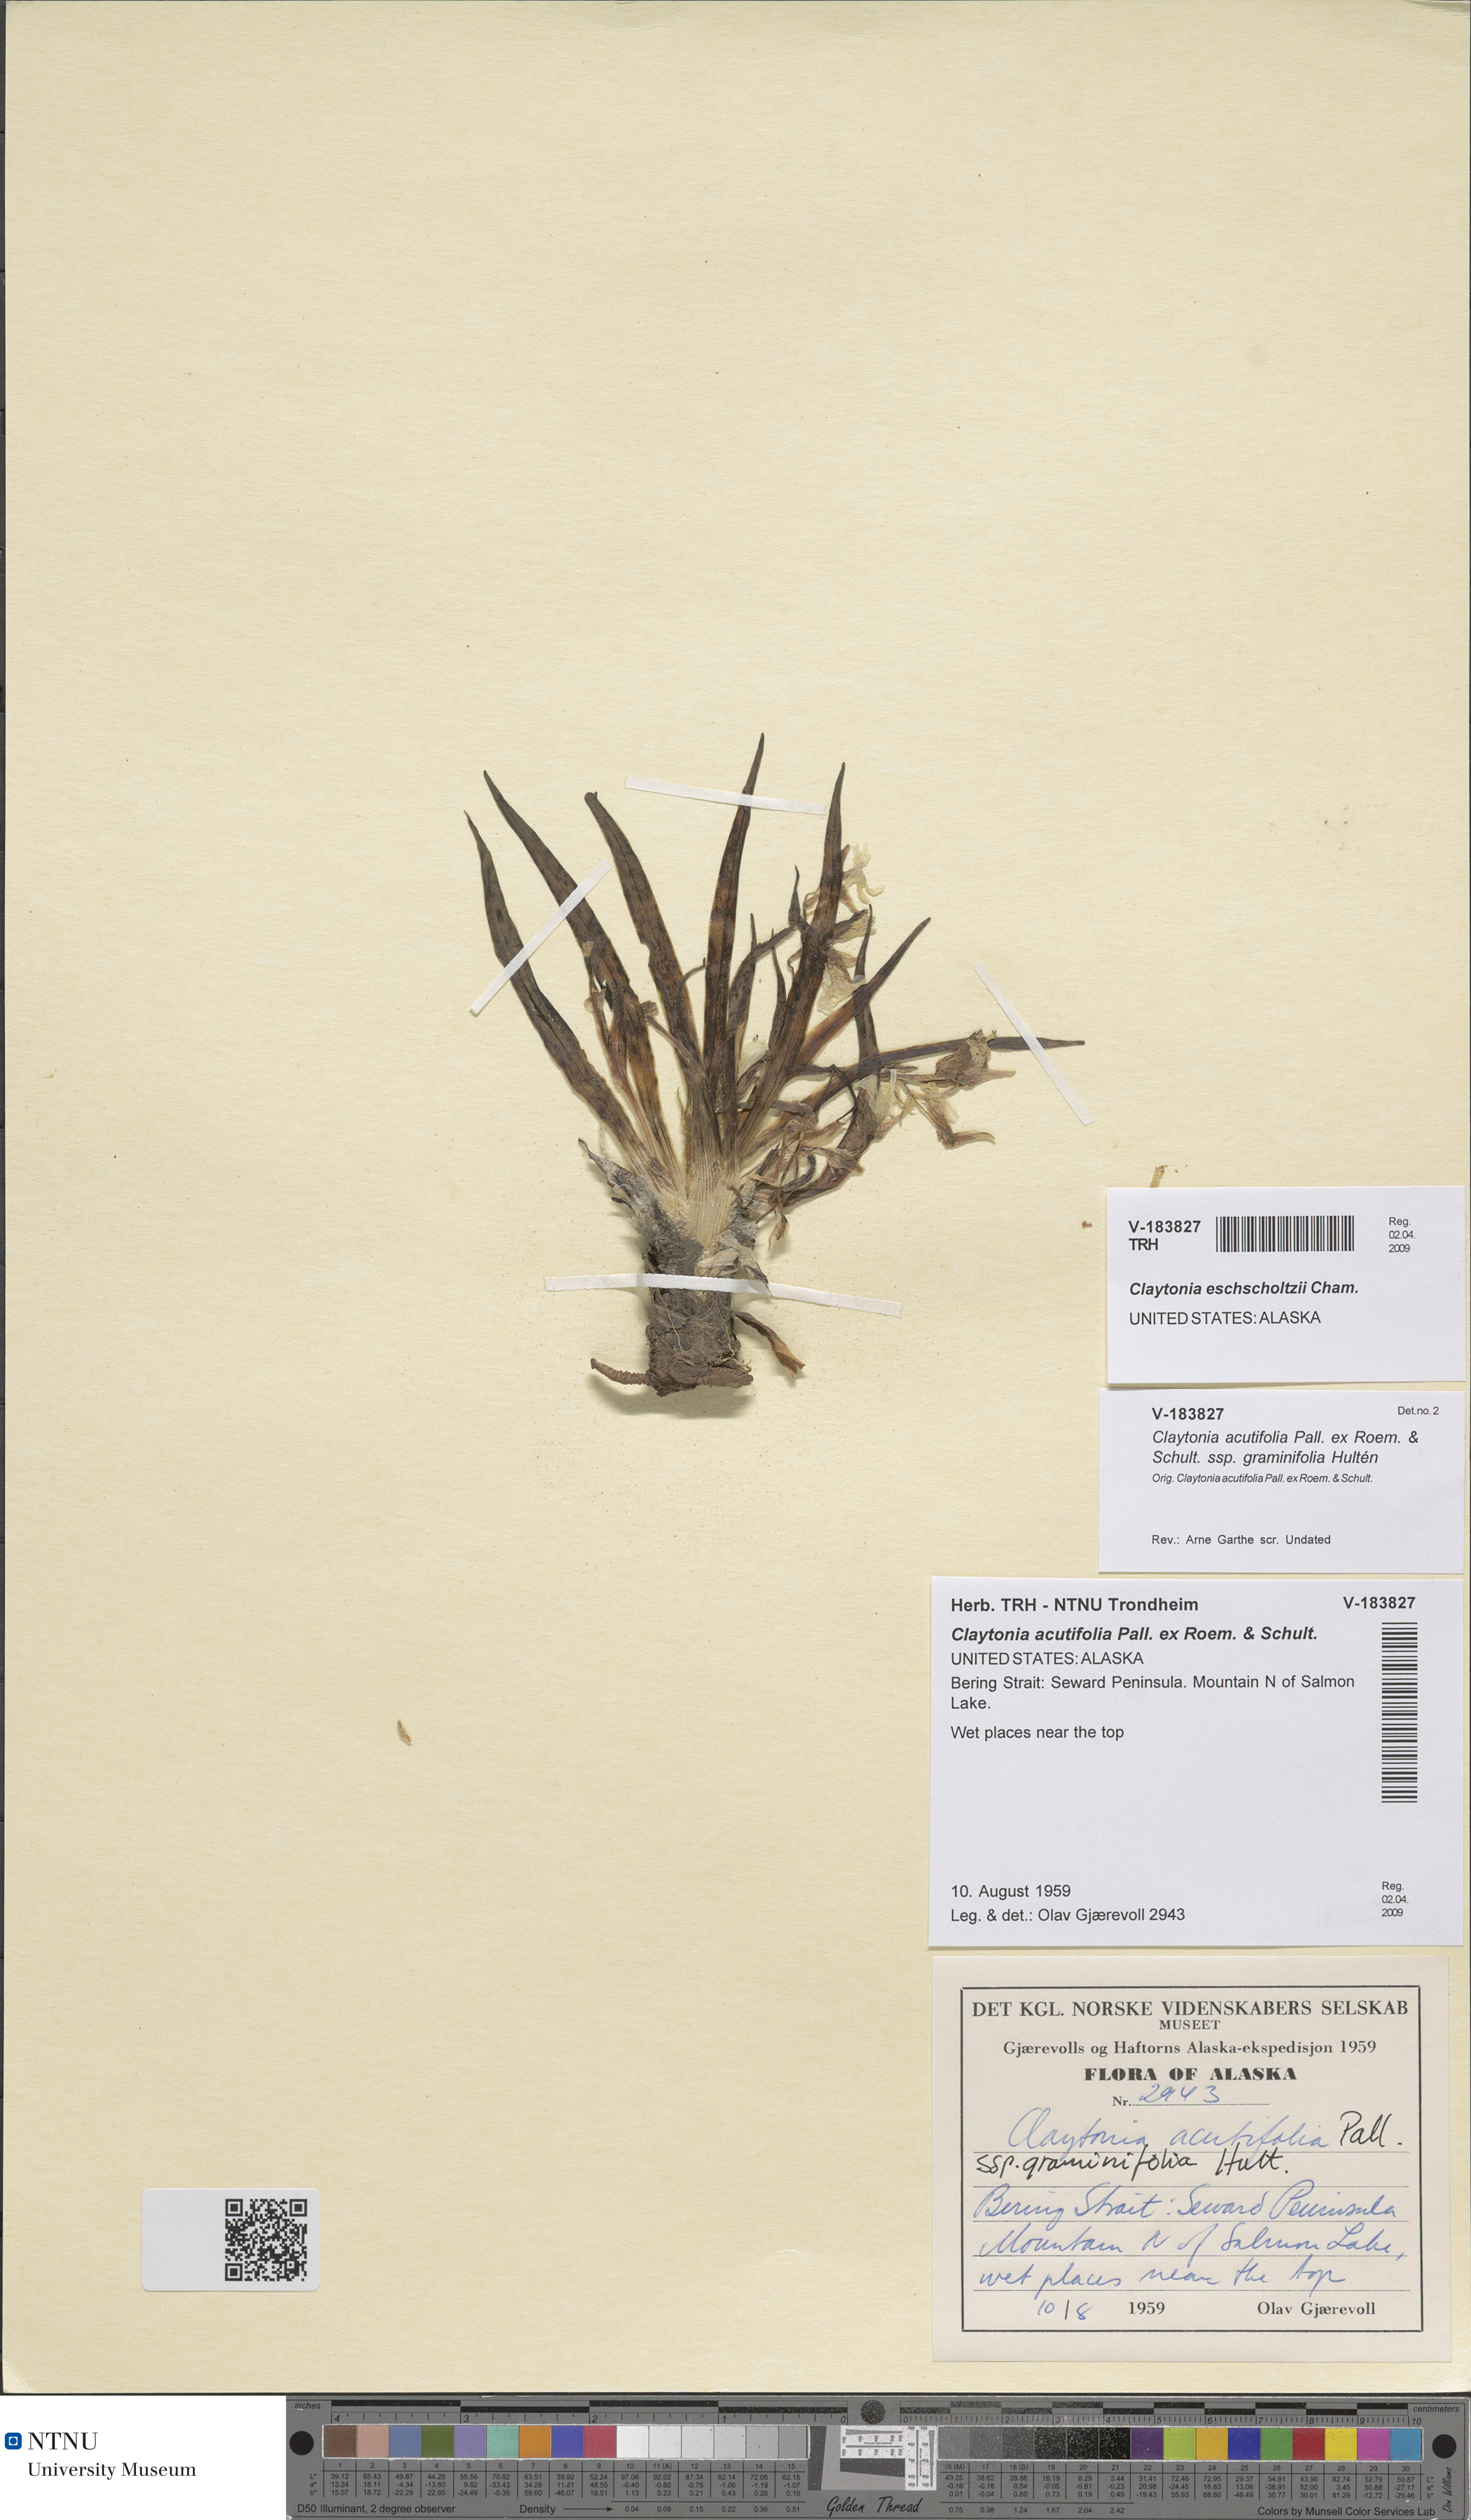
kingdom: Plantae
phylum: Tracheophyta
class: Magnoliopsida
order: Caryophyllales
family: Montiaceae
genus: Claytonia
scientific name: Claytonia acutifolia
